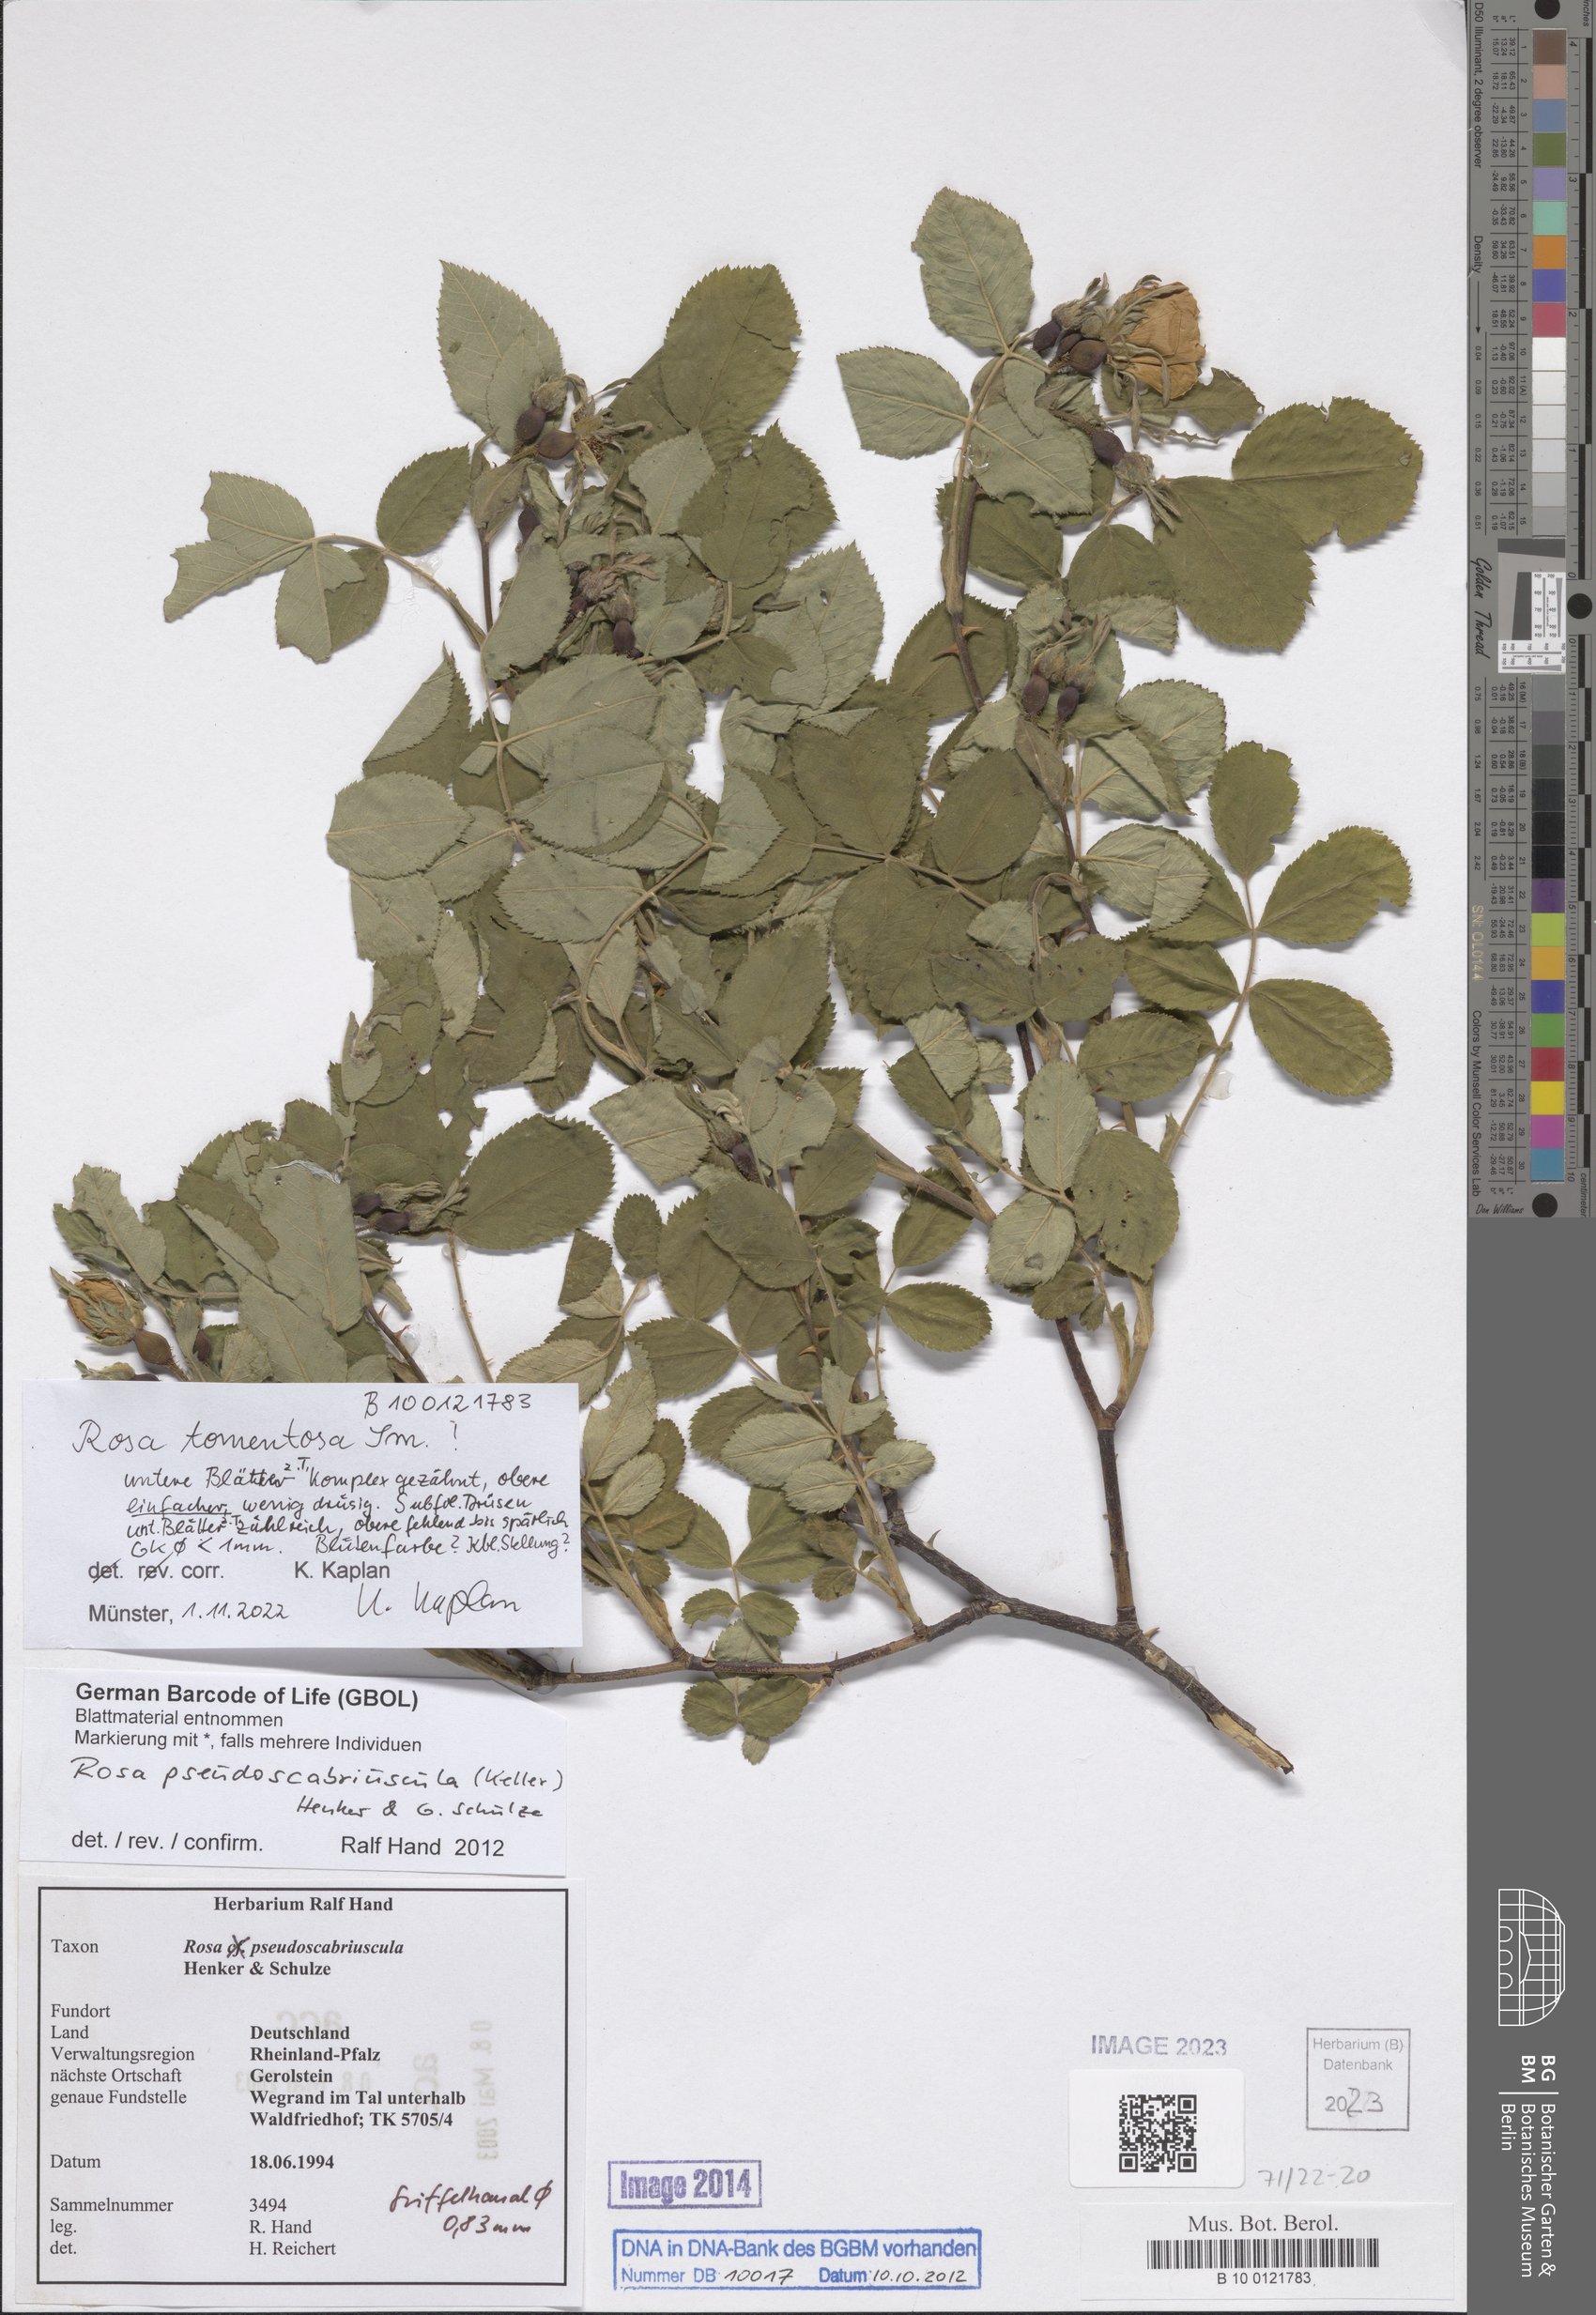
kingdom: Plantae
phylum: Tracheophyta
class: Magnoliopsida
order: Rosales
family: Rosaceae
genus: Rosa
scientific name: Rosa tomentosa
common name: Downy rose
